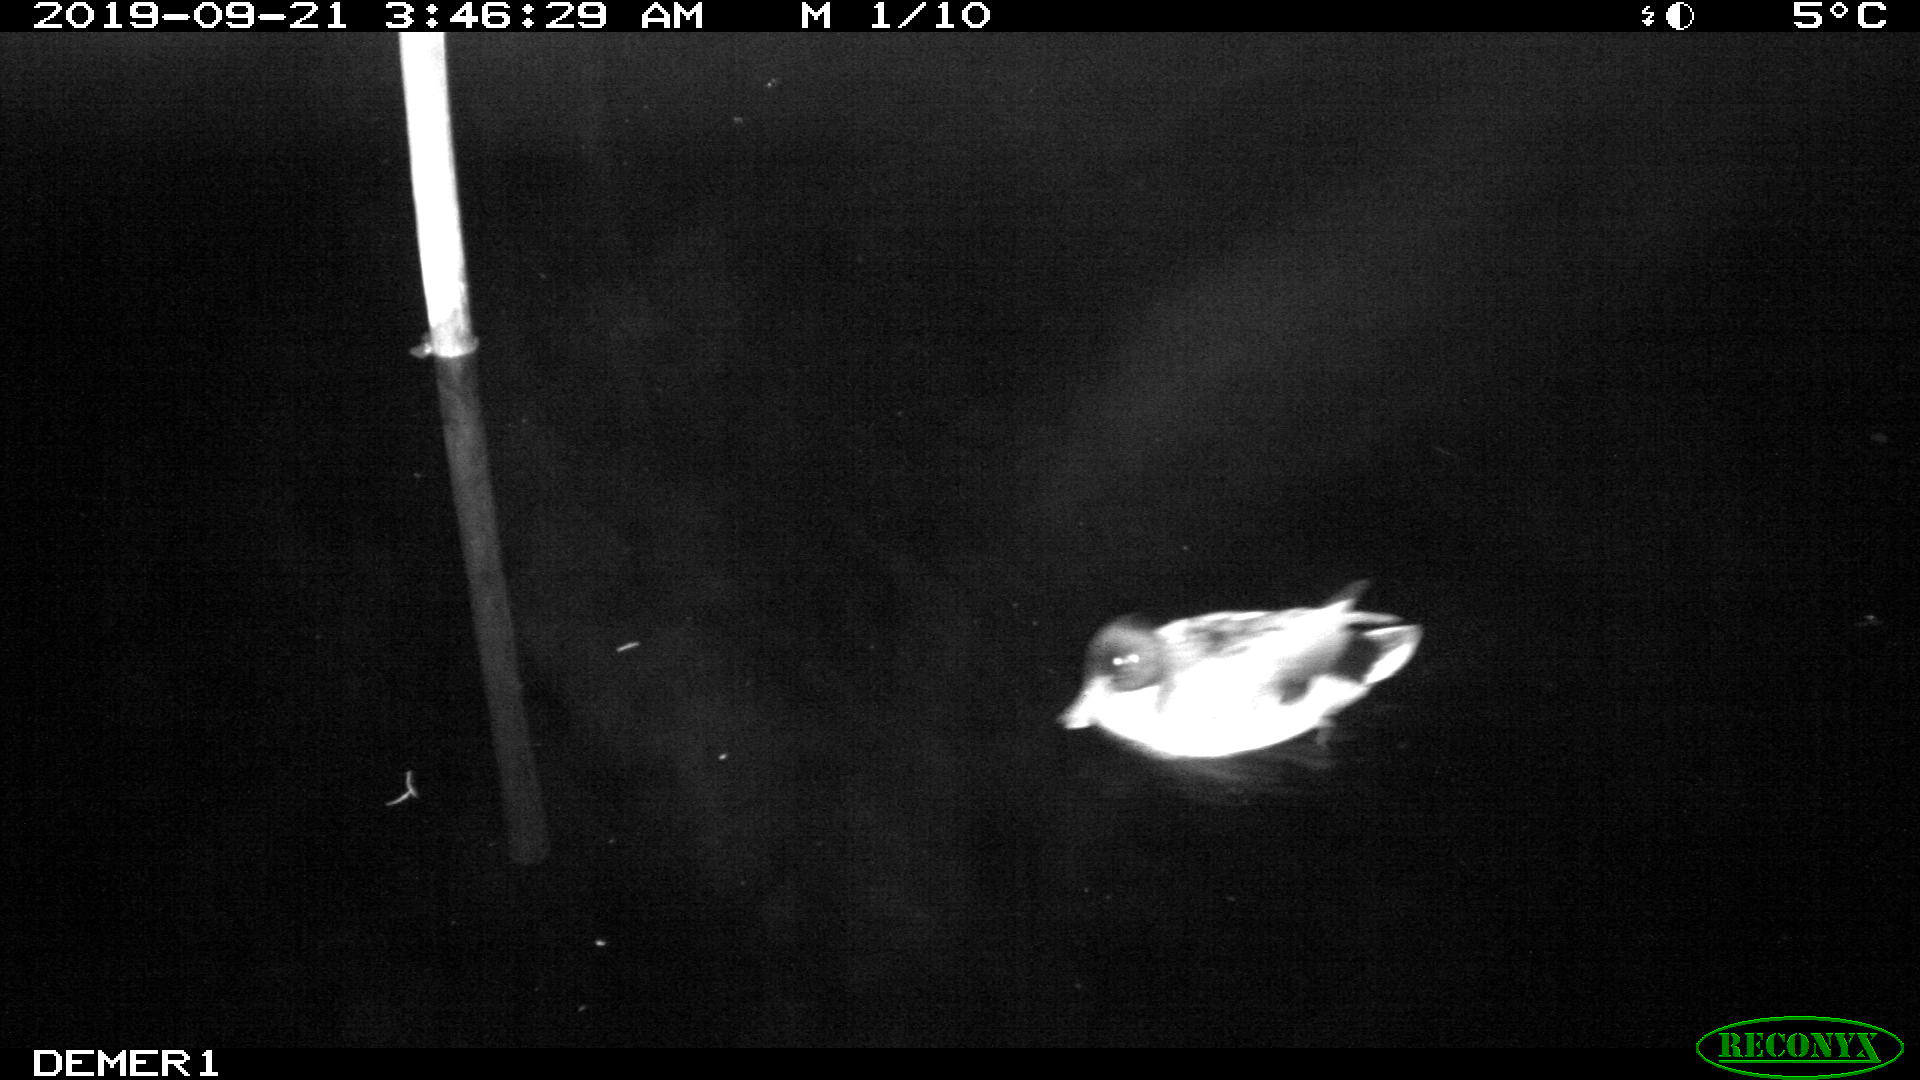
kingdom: Animalia
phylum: Chordata
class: Aves
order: Anseriformes
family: Anatidae
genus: Anas
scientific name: Anas platyrhynchos
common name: Mallard
